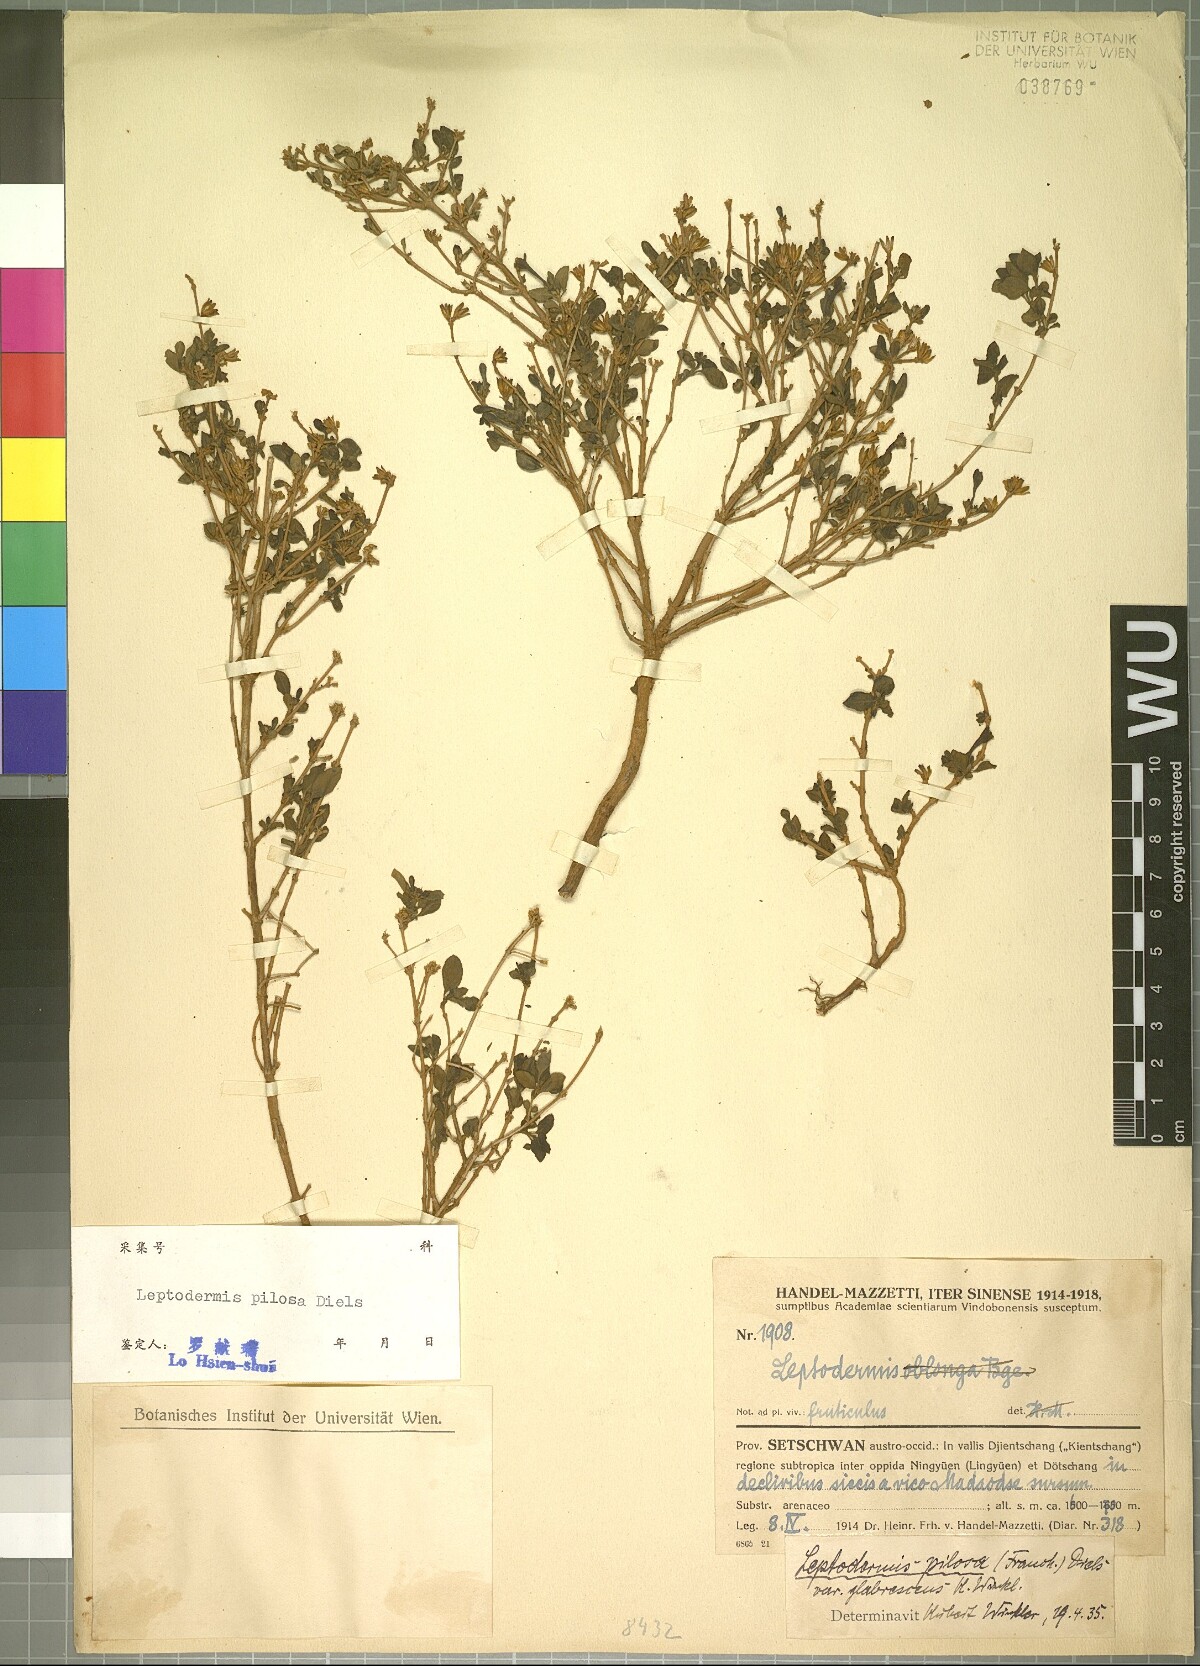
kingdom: Plantae
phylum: Tracheophyta
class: Magnoliopsida
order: Gentianales
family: Rubiaceae
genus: Leptodermis
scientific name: Leptodermis potaninii
